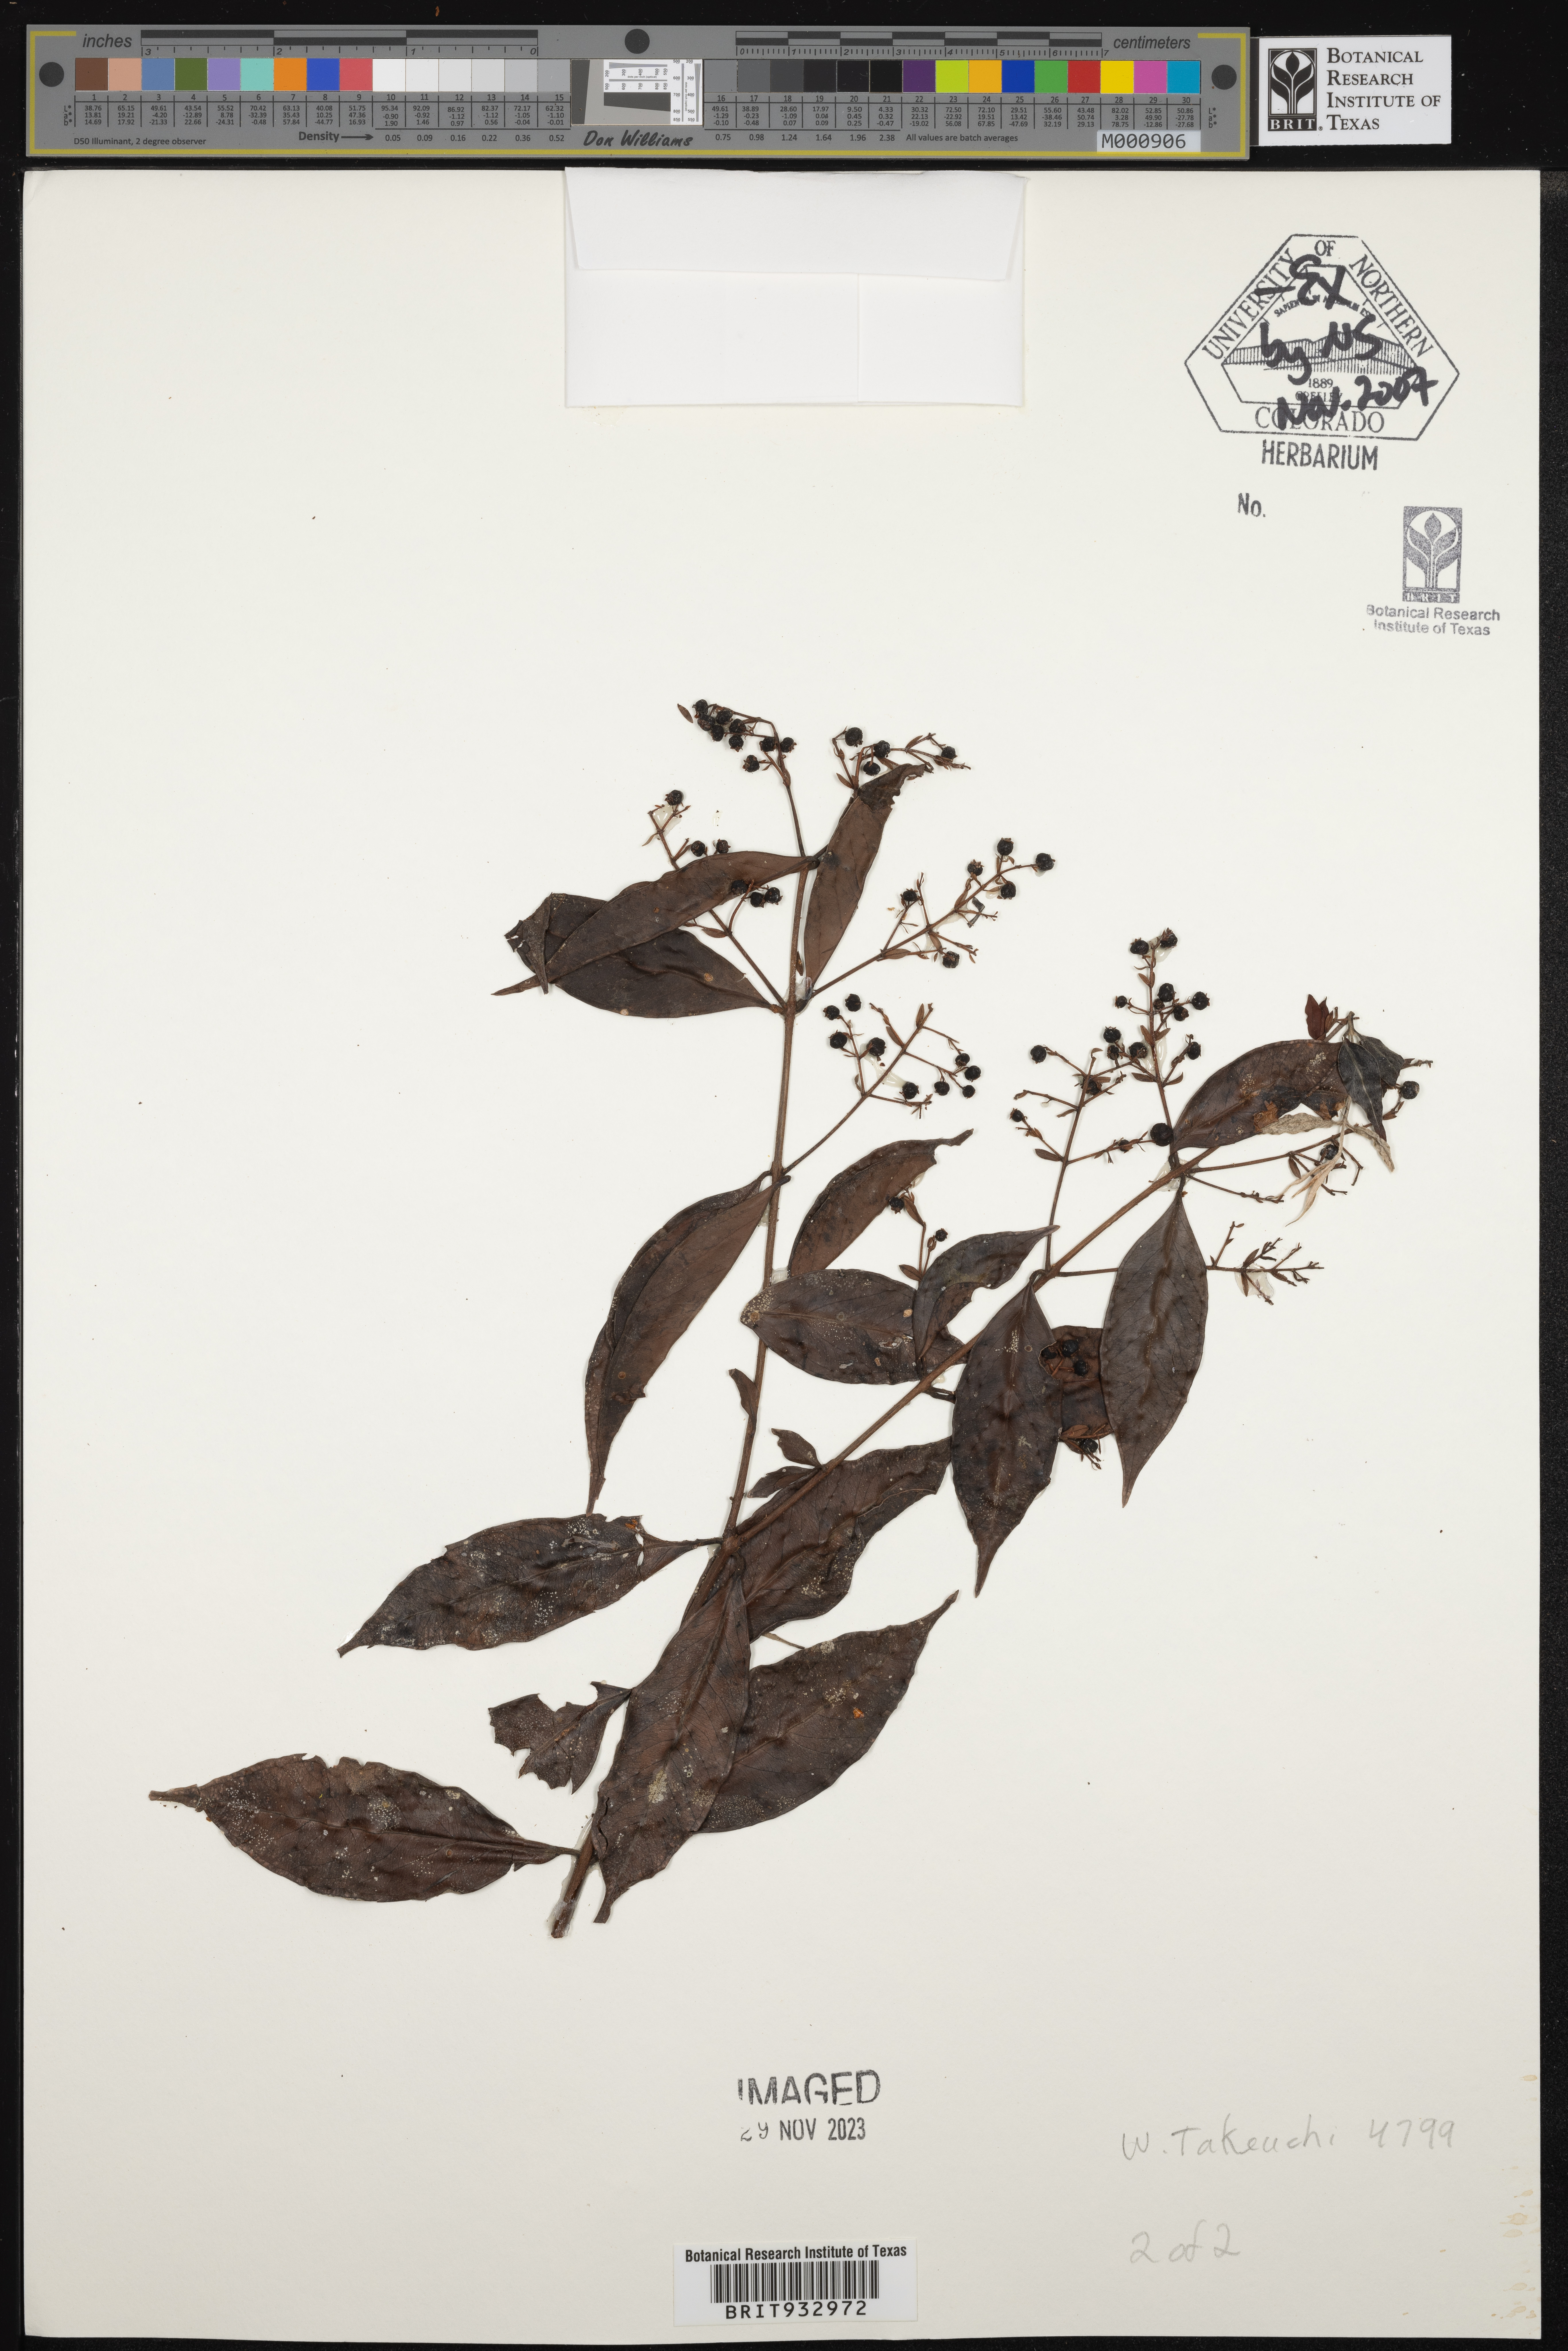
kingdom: Plantae
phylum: Tracheophyta
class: Magnoliopsida
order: Myrtales
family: Myrtaceae
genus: Decaspermum
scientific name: Decaspermum
